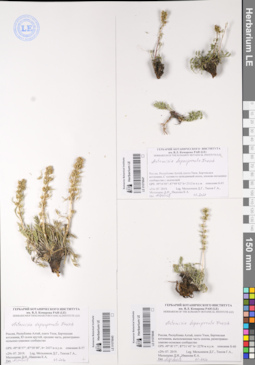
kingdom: Plantae
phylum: Tracheophyta
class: Magnoliopsida
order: Asterales
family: Asteraceae
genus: Artemisia
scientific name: Artemisia pycnorrhiza
